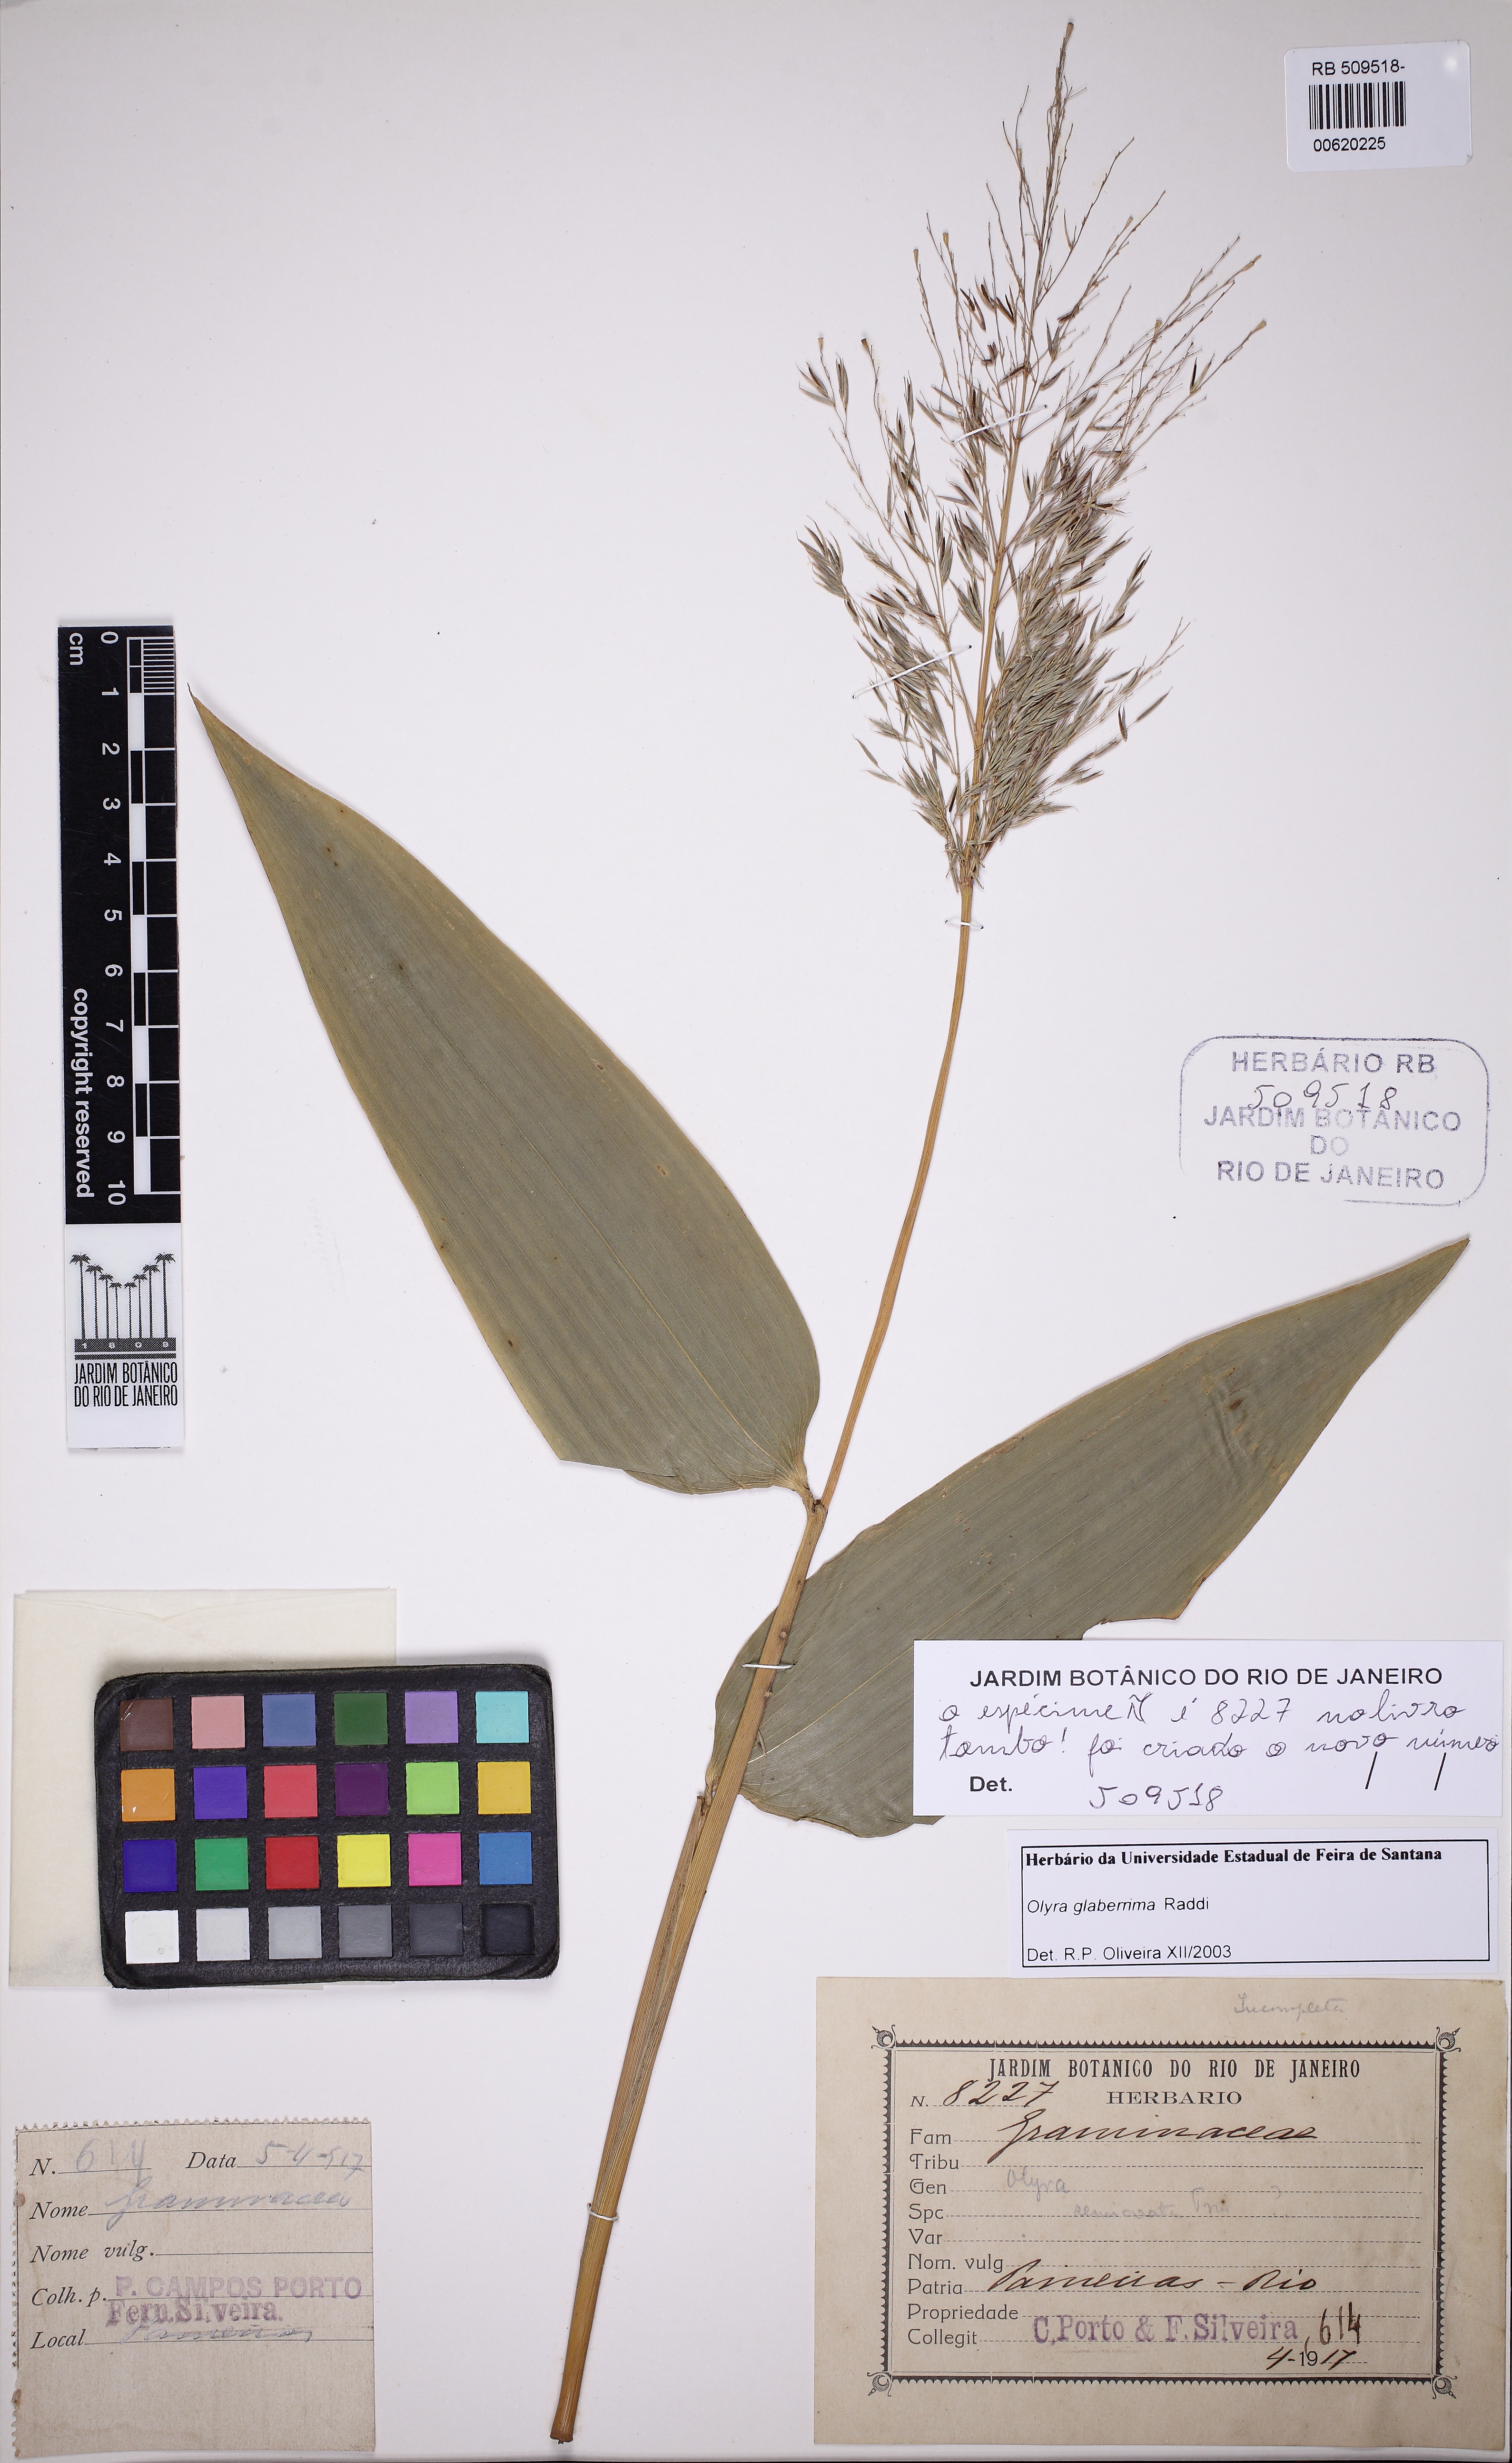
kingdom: Plantae
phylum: Tracheophyta
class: Liliopsida
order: Poales
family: Poaceae
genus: Olyra
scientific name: Olyra glaberrima
